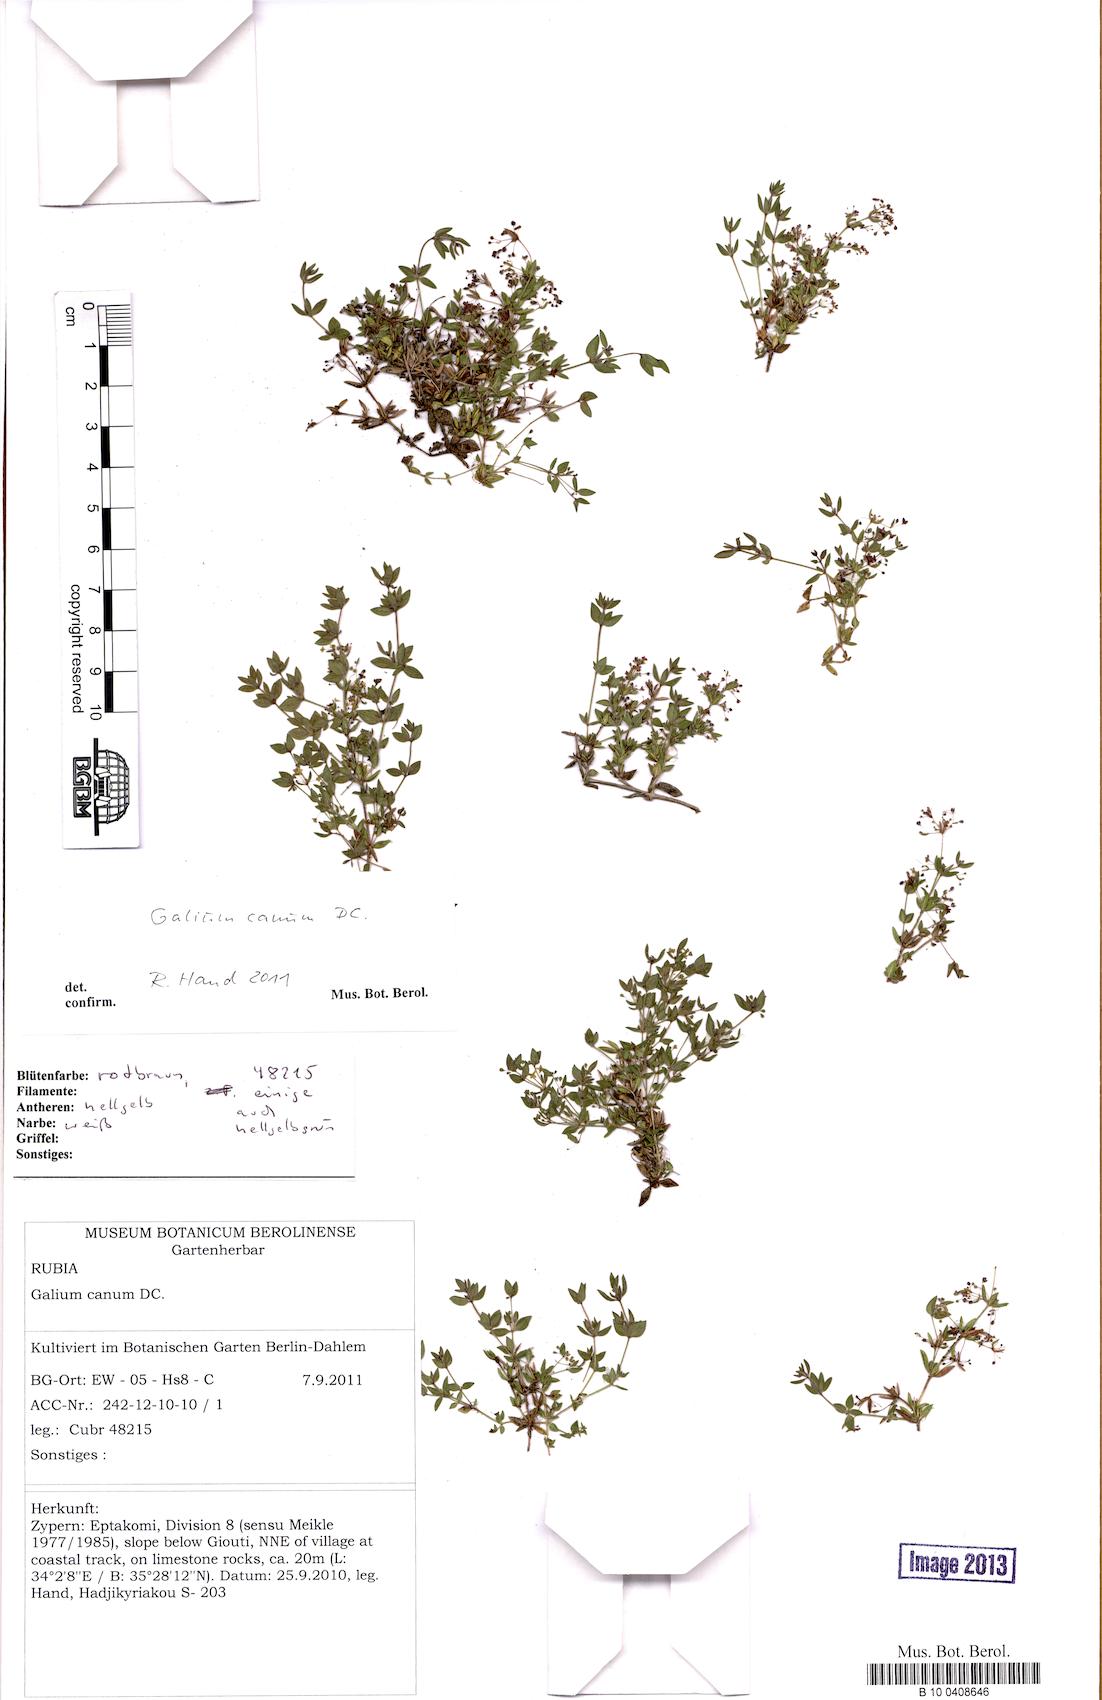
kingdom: Plantae
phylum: Tracheophyta
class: Magnoliopsida
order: Gentianales
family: Rubiaceae
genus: Galium
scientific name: Galium canum
